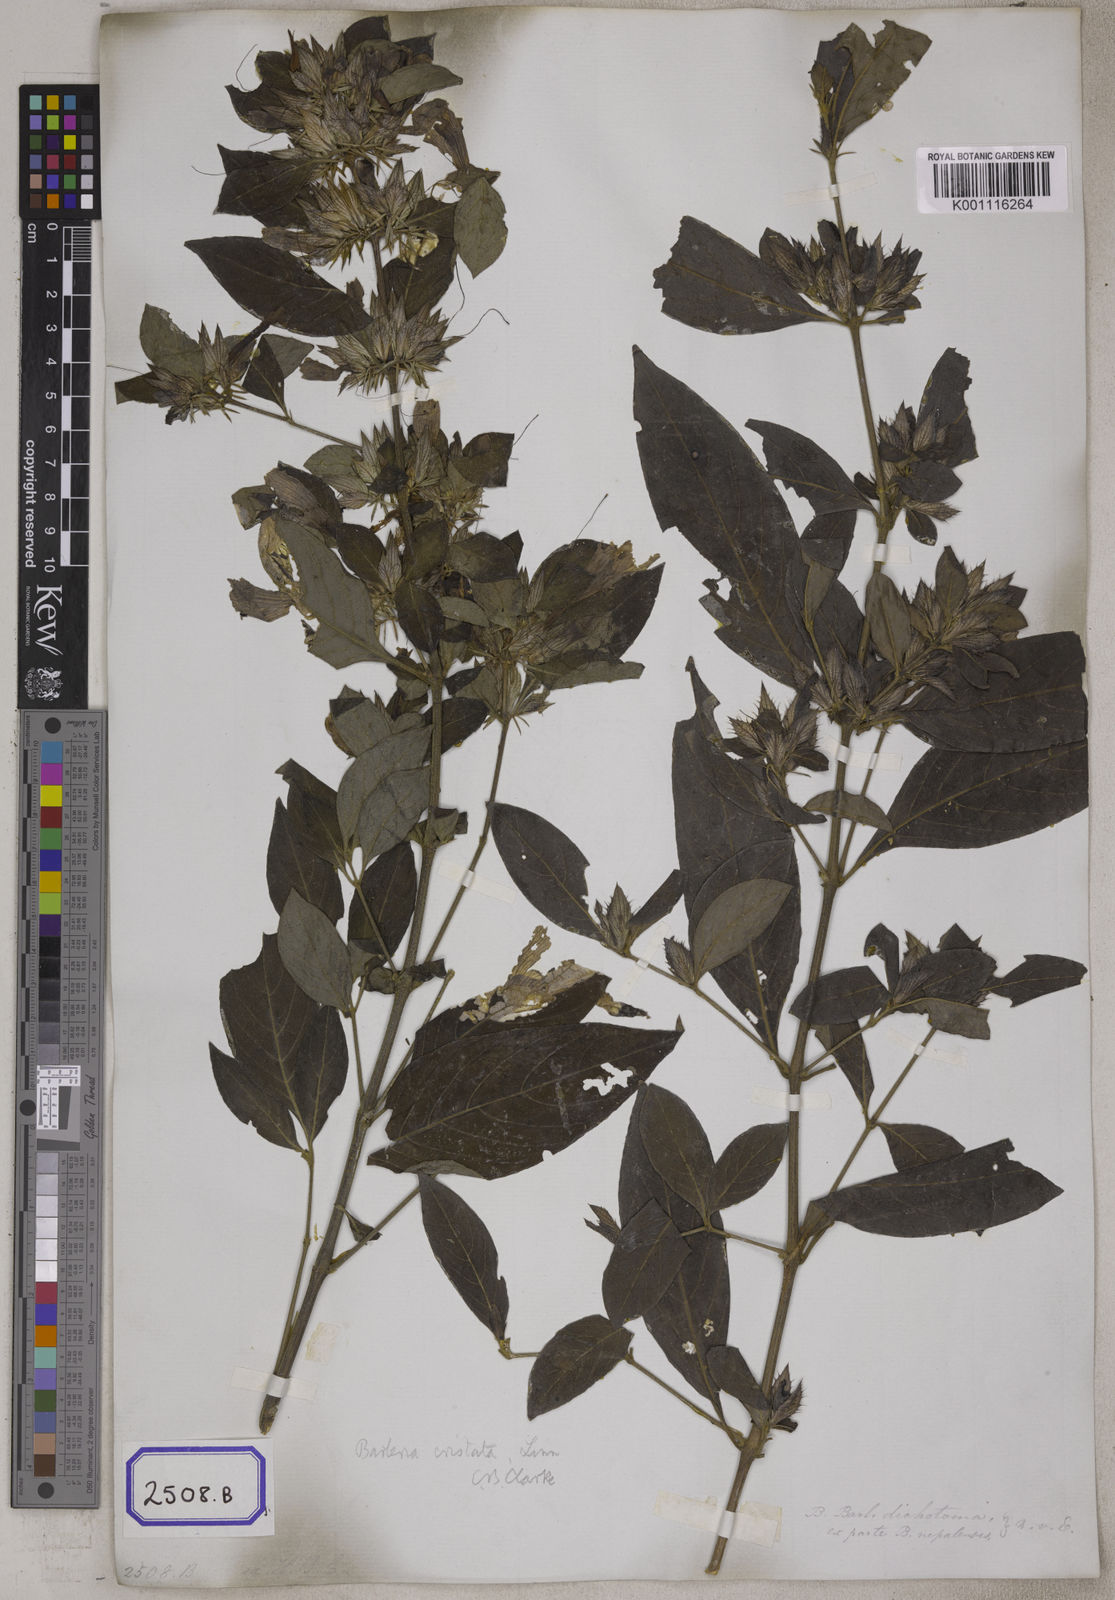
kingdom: Plantae
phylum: Tracheophyta
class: Magnoliopsida
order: Lamiales
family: Acanthaceae
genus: Barleria
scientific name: Barleria cristata
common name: Crested philippine violet
